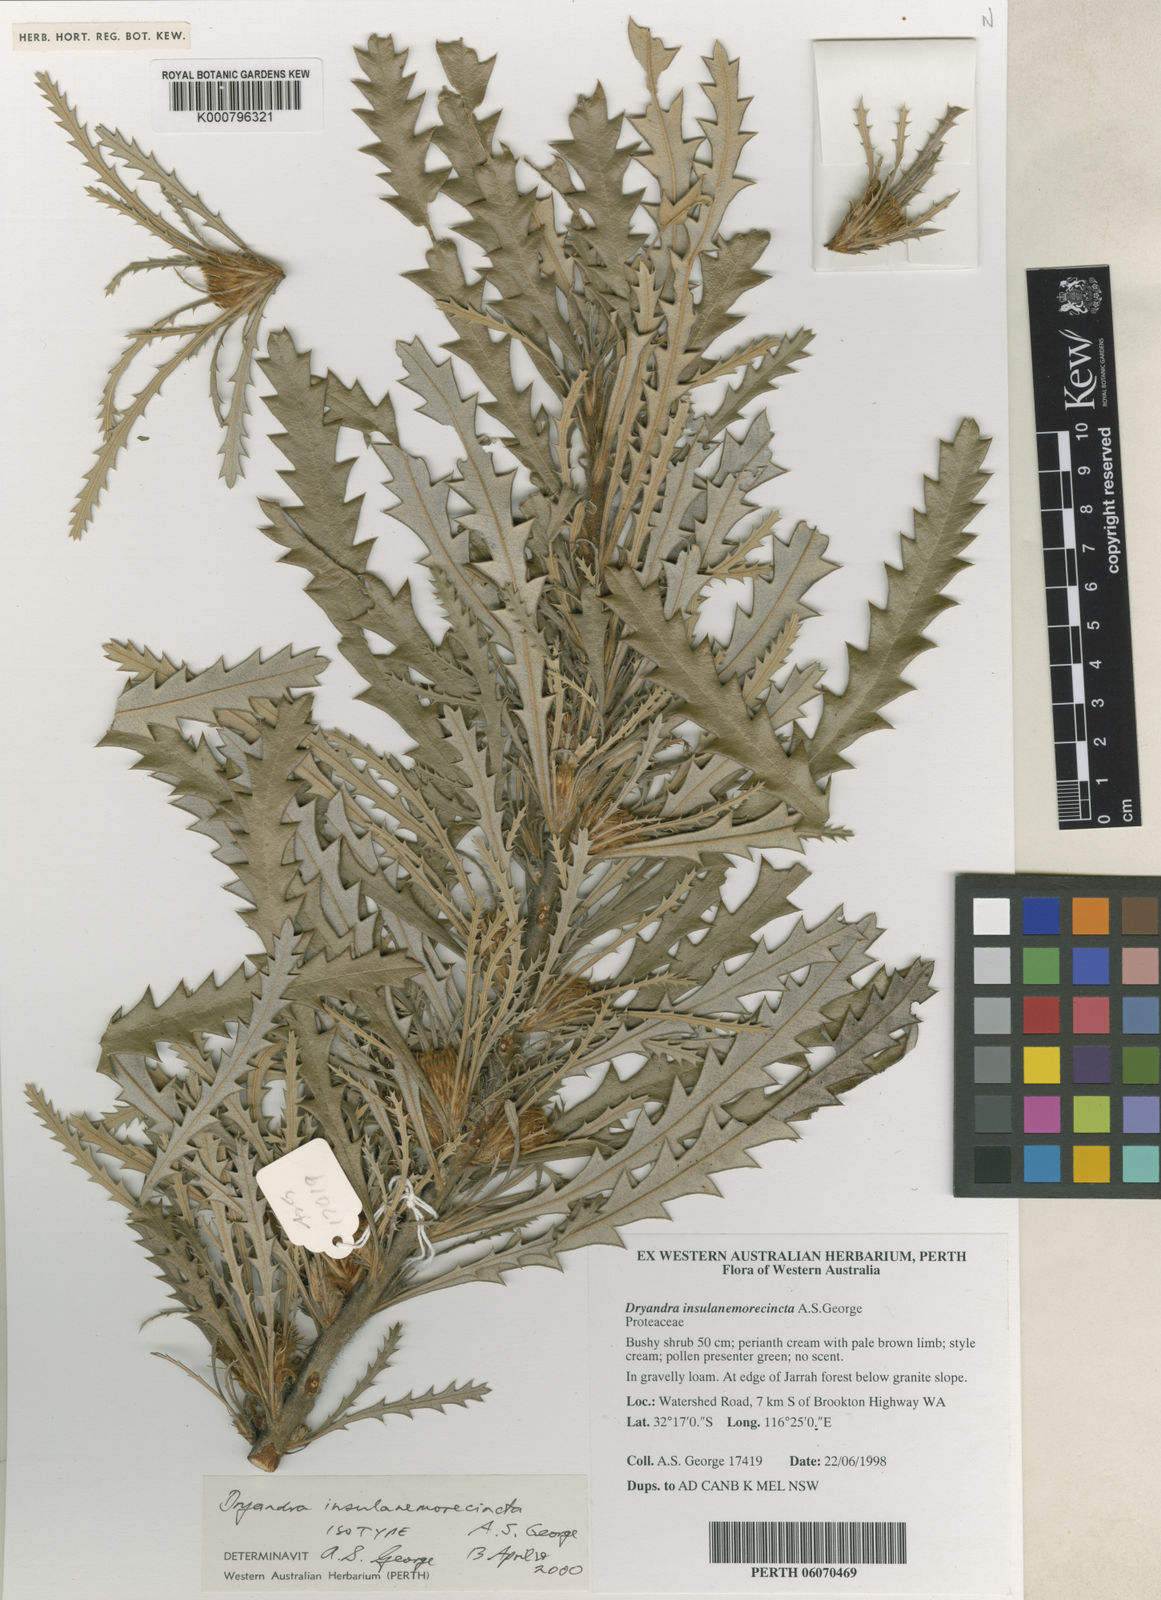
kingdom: Plantae
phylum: Tracheophyta
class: Magnoliopsida
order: Proteales
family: Proteaceae
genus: Banksia
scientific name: Banksia insulanemorecincta
